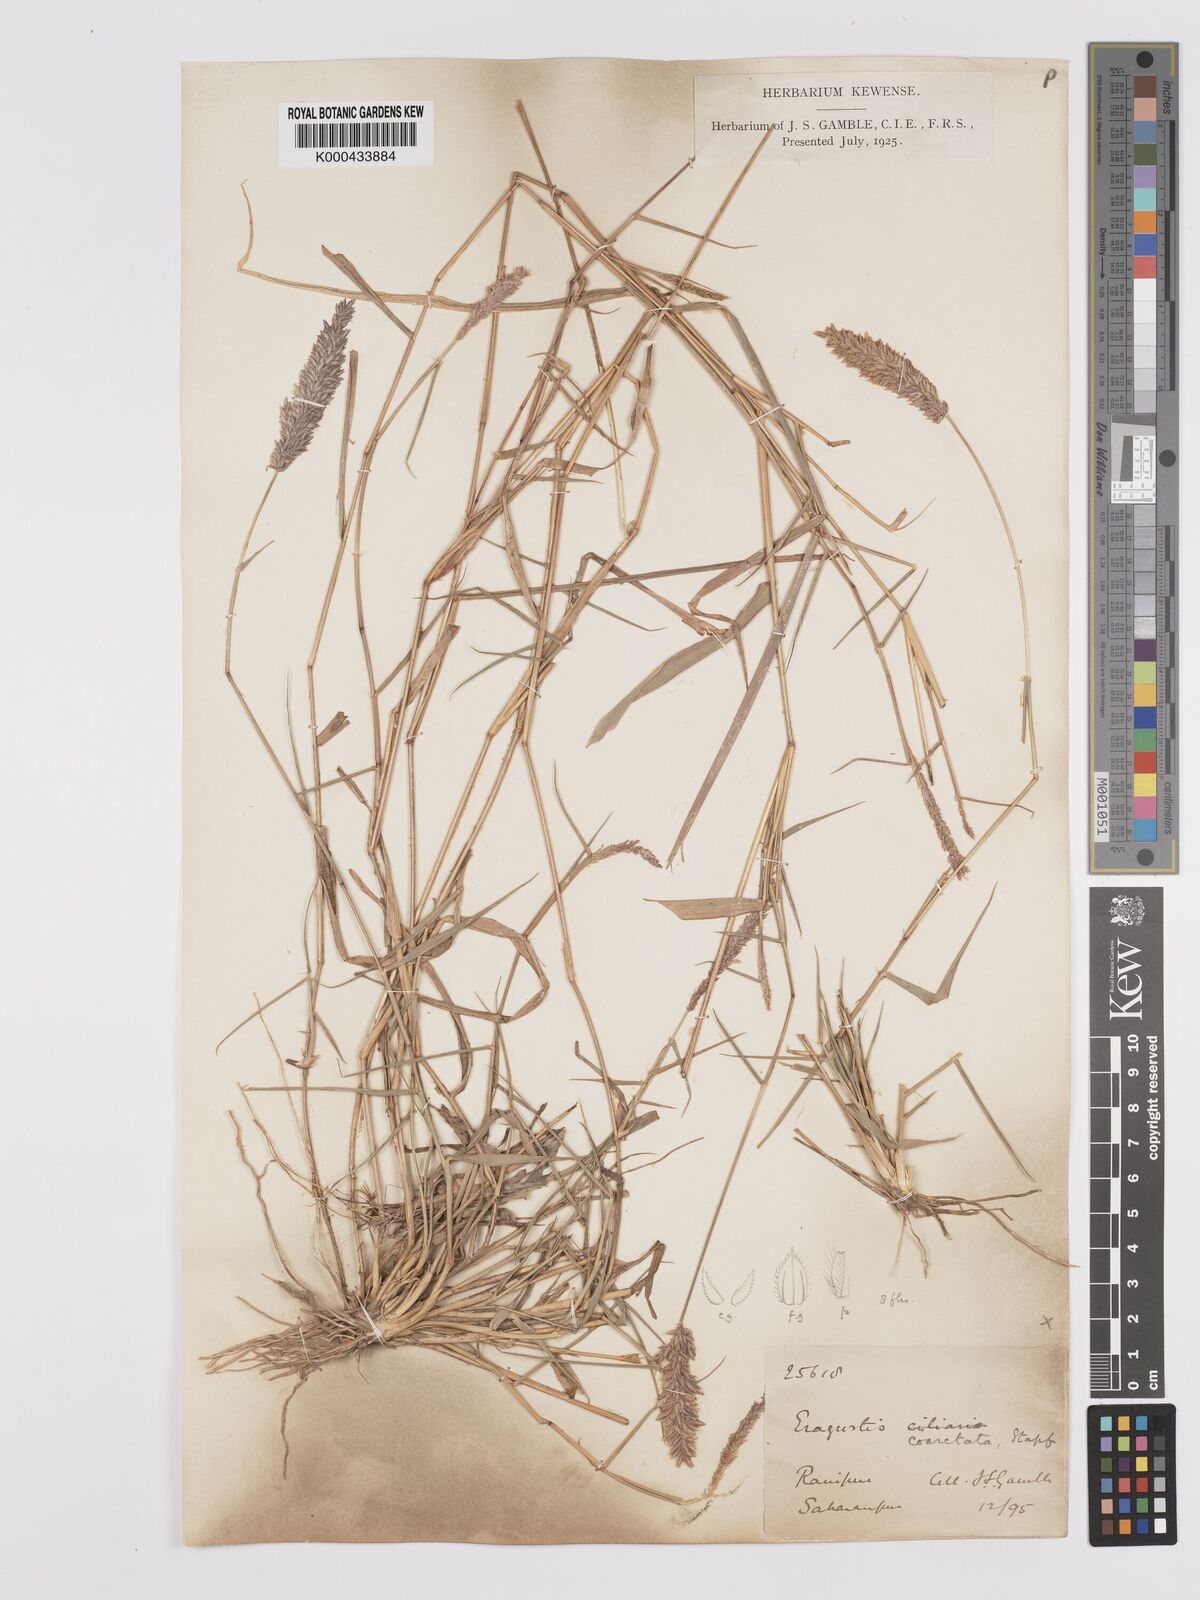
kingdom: Plantae
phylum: Tracheophyta
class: Liliopsida
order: Poales
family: Poaceae
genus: Eragrostis
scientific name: Eragrostis coarctata
